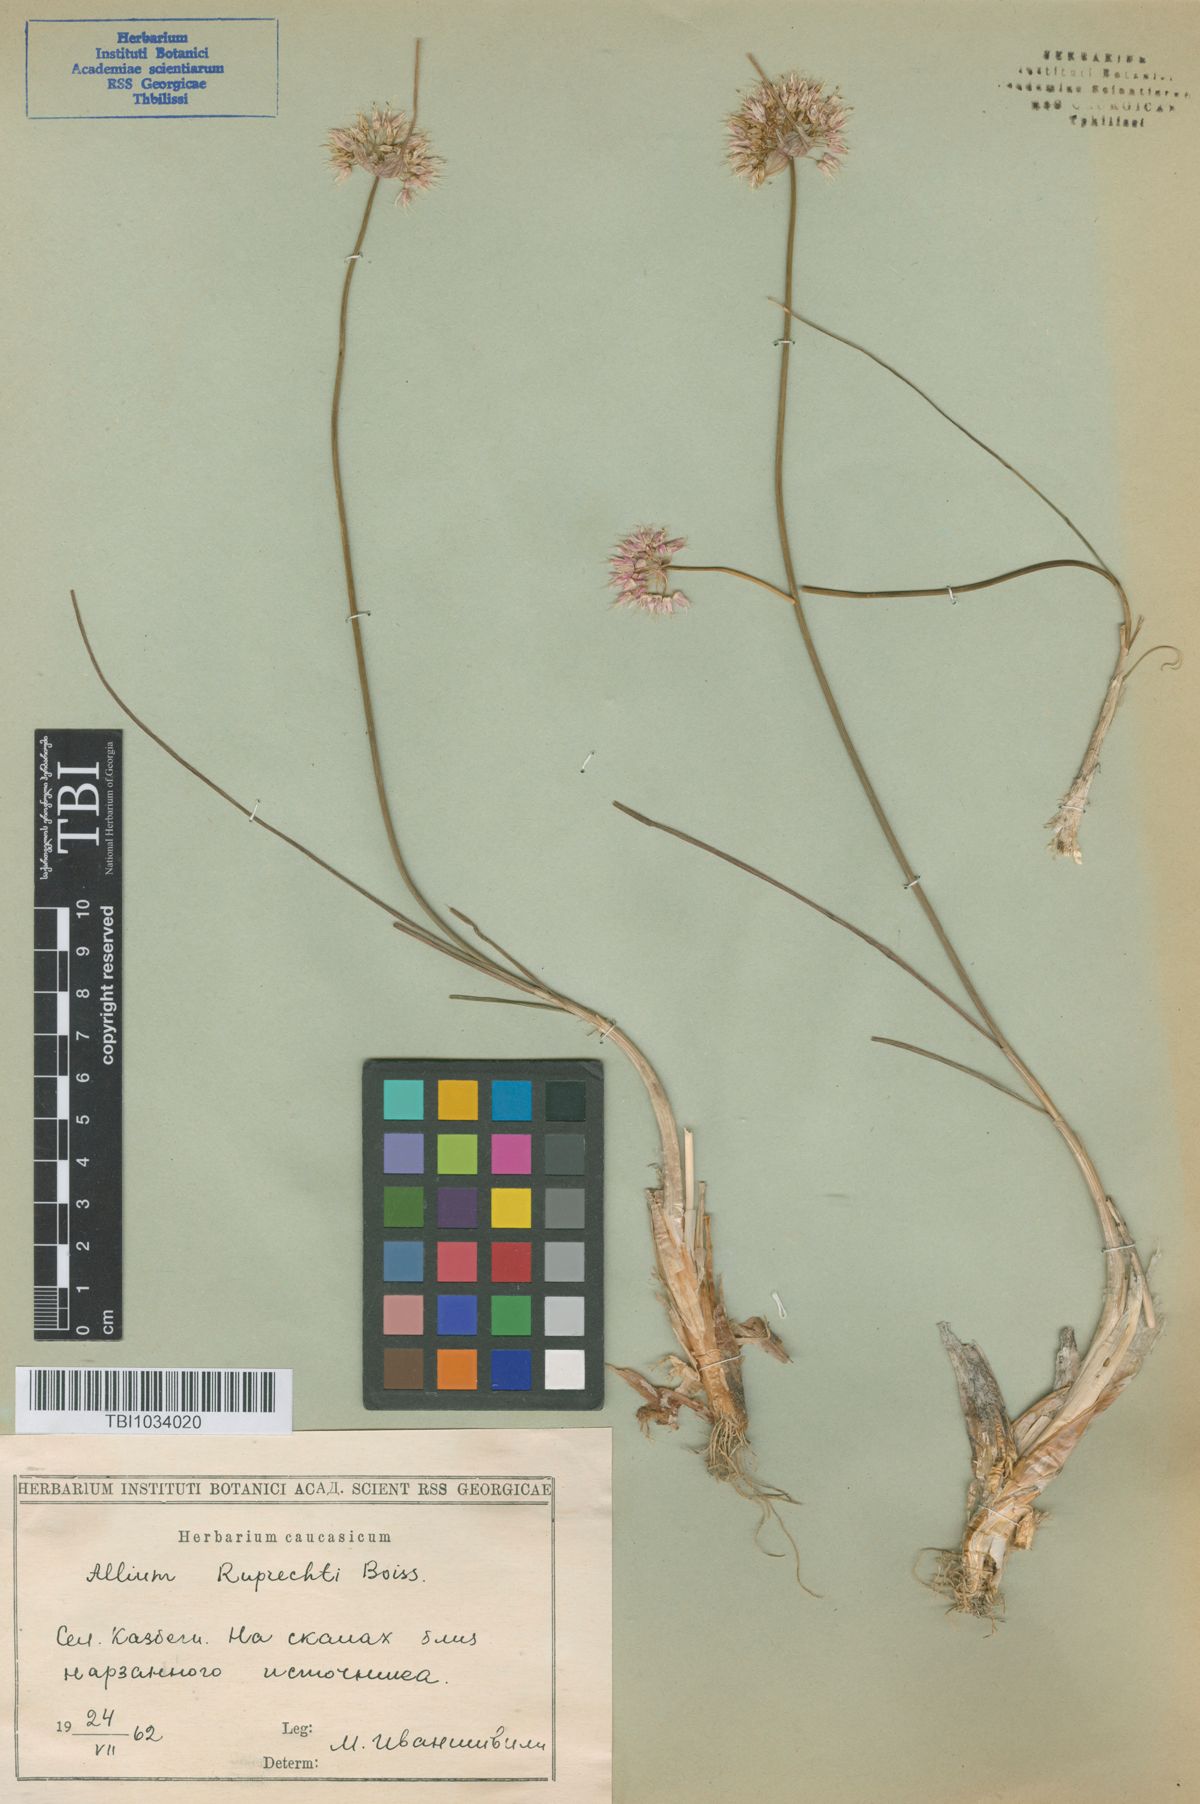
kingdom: Plantae
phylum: Tracheophyta
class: Liliopsida
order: Asparagales
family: Amaryllidaceae
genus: Allium
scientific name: Allium saxatile
